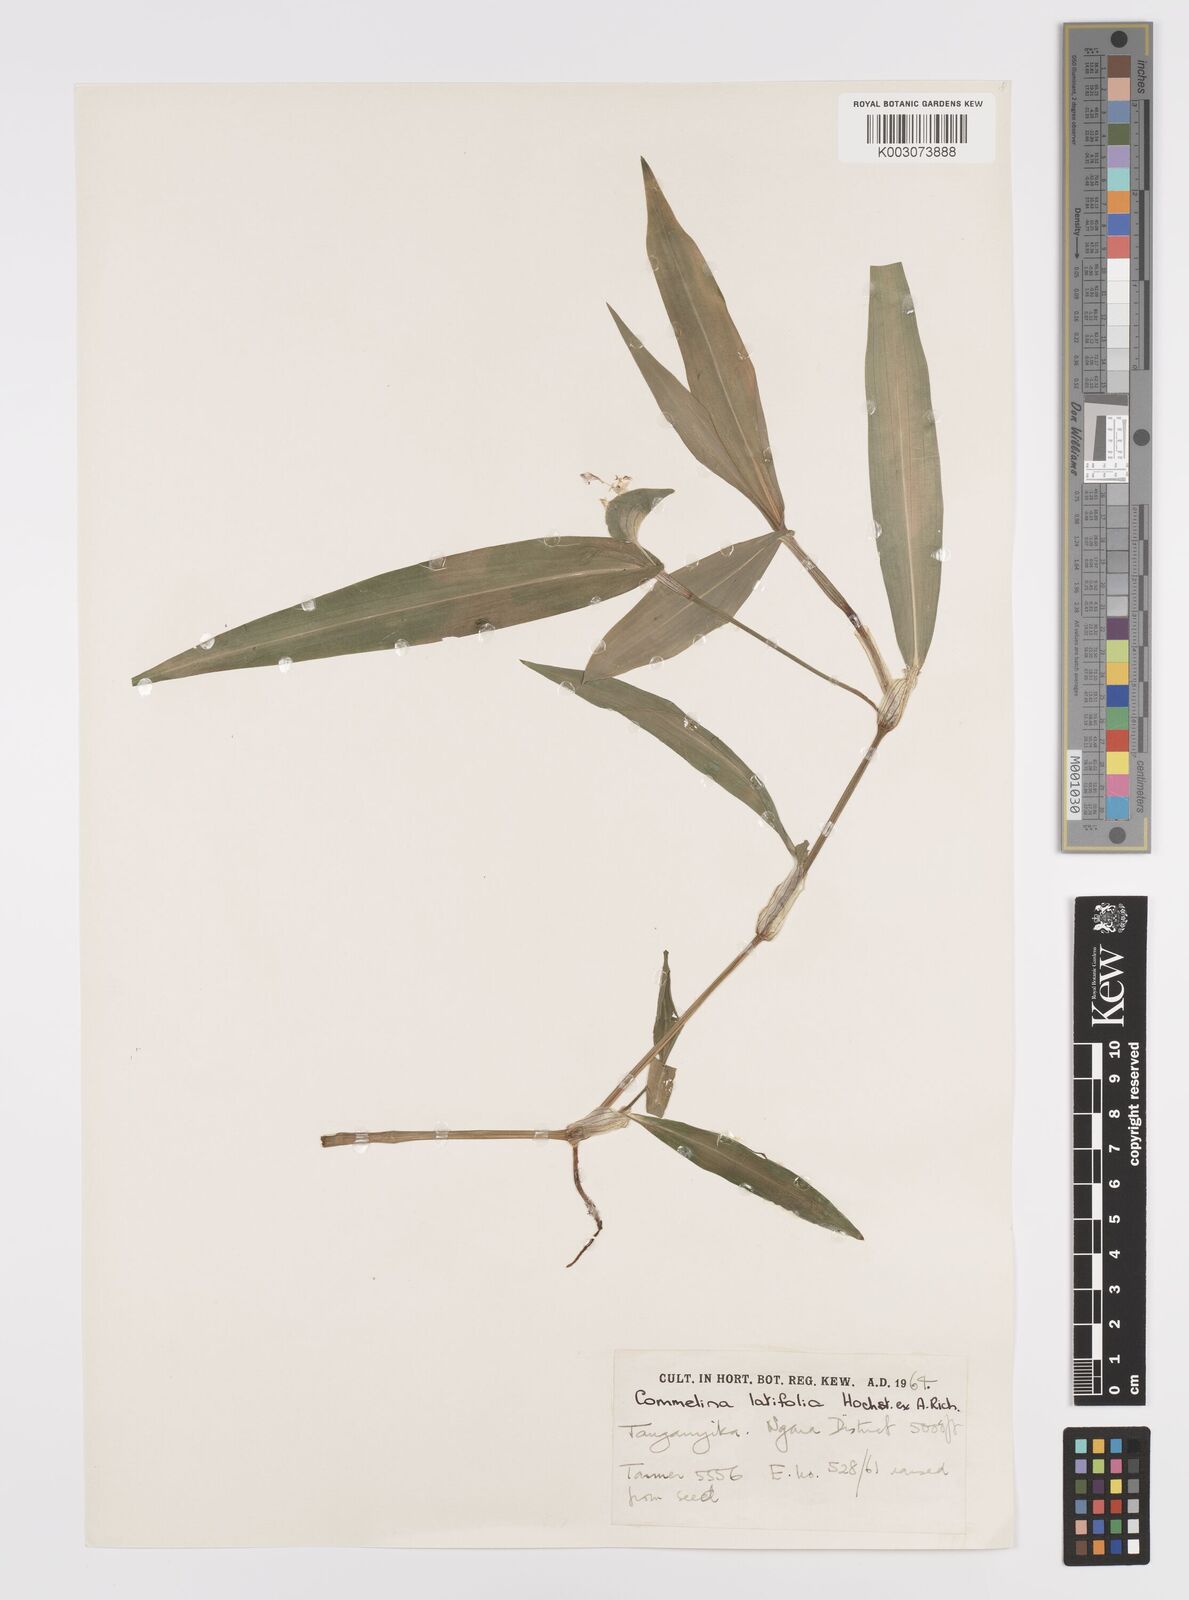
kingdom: Plantae
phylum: Tracheophyta
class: Liliopsida
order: Commelinales
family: Commelinaceae
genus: Commelina
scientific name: Commelina latifolia
